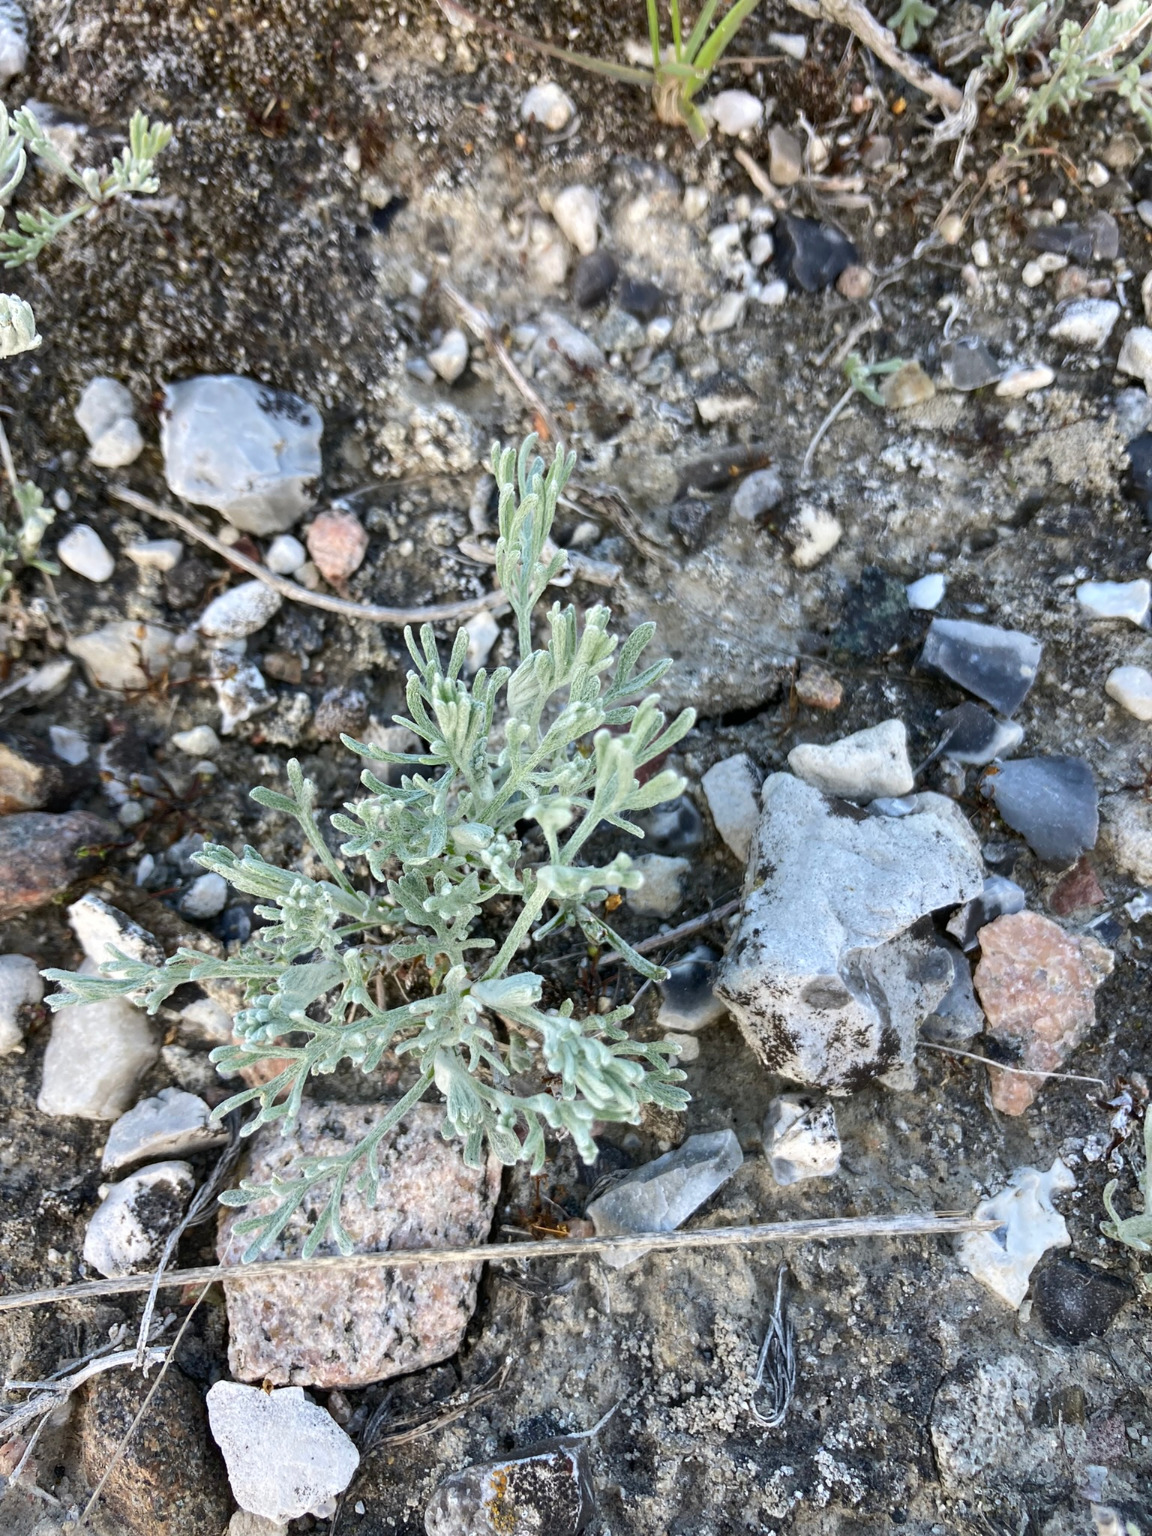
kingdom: Plantae
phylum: Tracheophyta
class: Magnoliopsida
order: Asterales
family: Asteraceae
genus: Artemisia
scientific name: Artemisia maritima
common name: Strandmalurt
